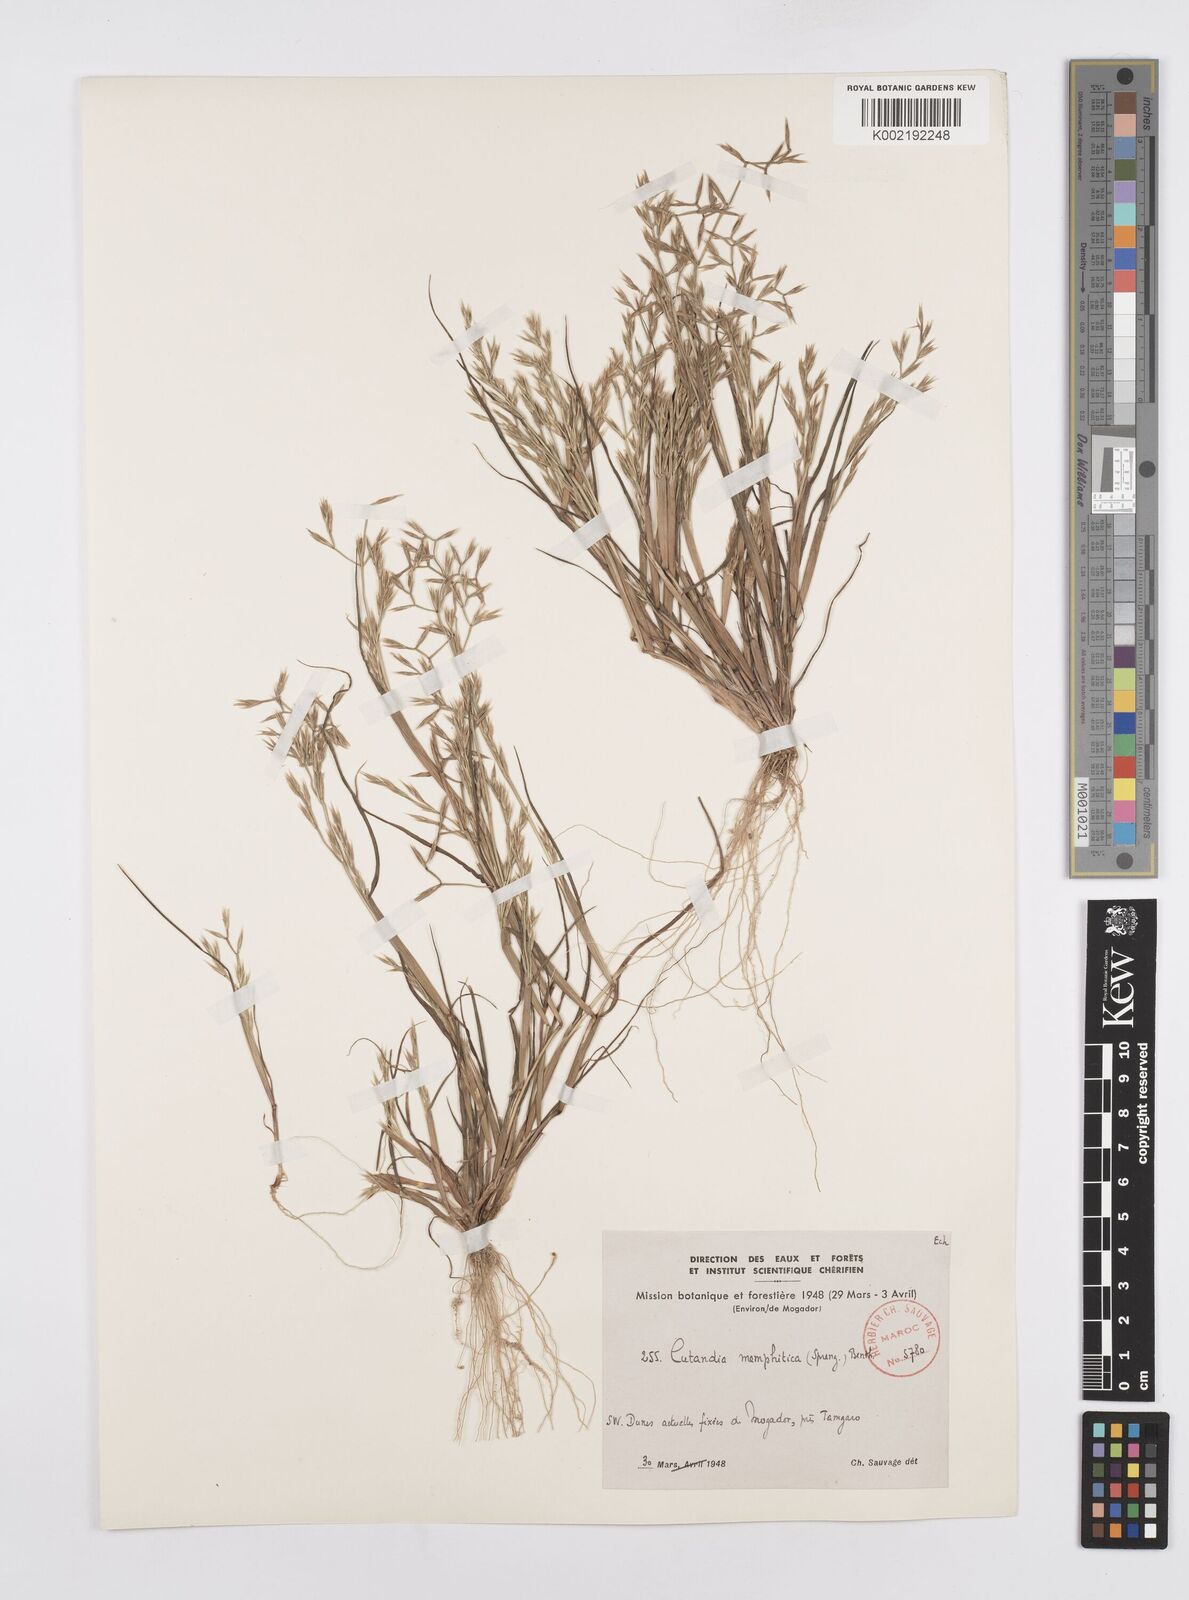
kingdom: Plantae
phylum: Tracheophyta
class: Liliopsida
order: Poales
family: Poaceae
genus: Cutandia
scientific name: Cutandia memphitica
